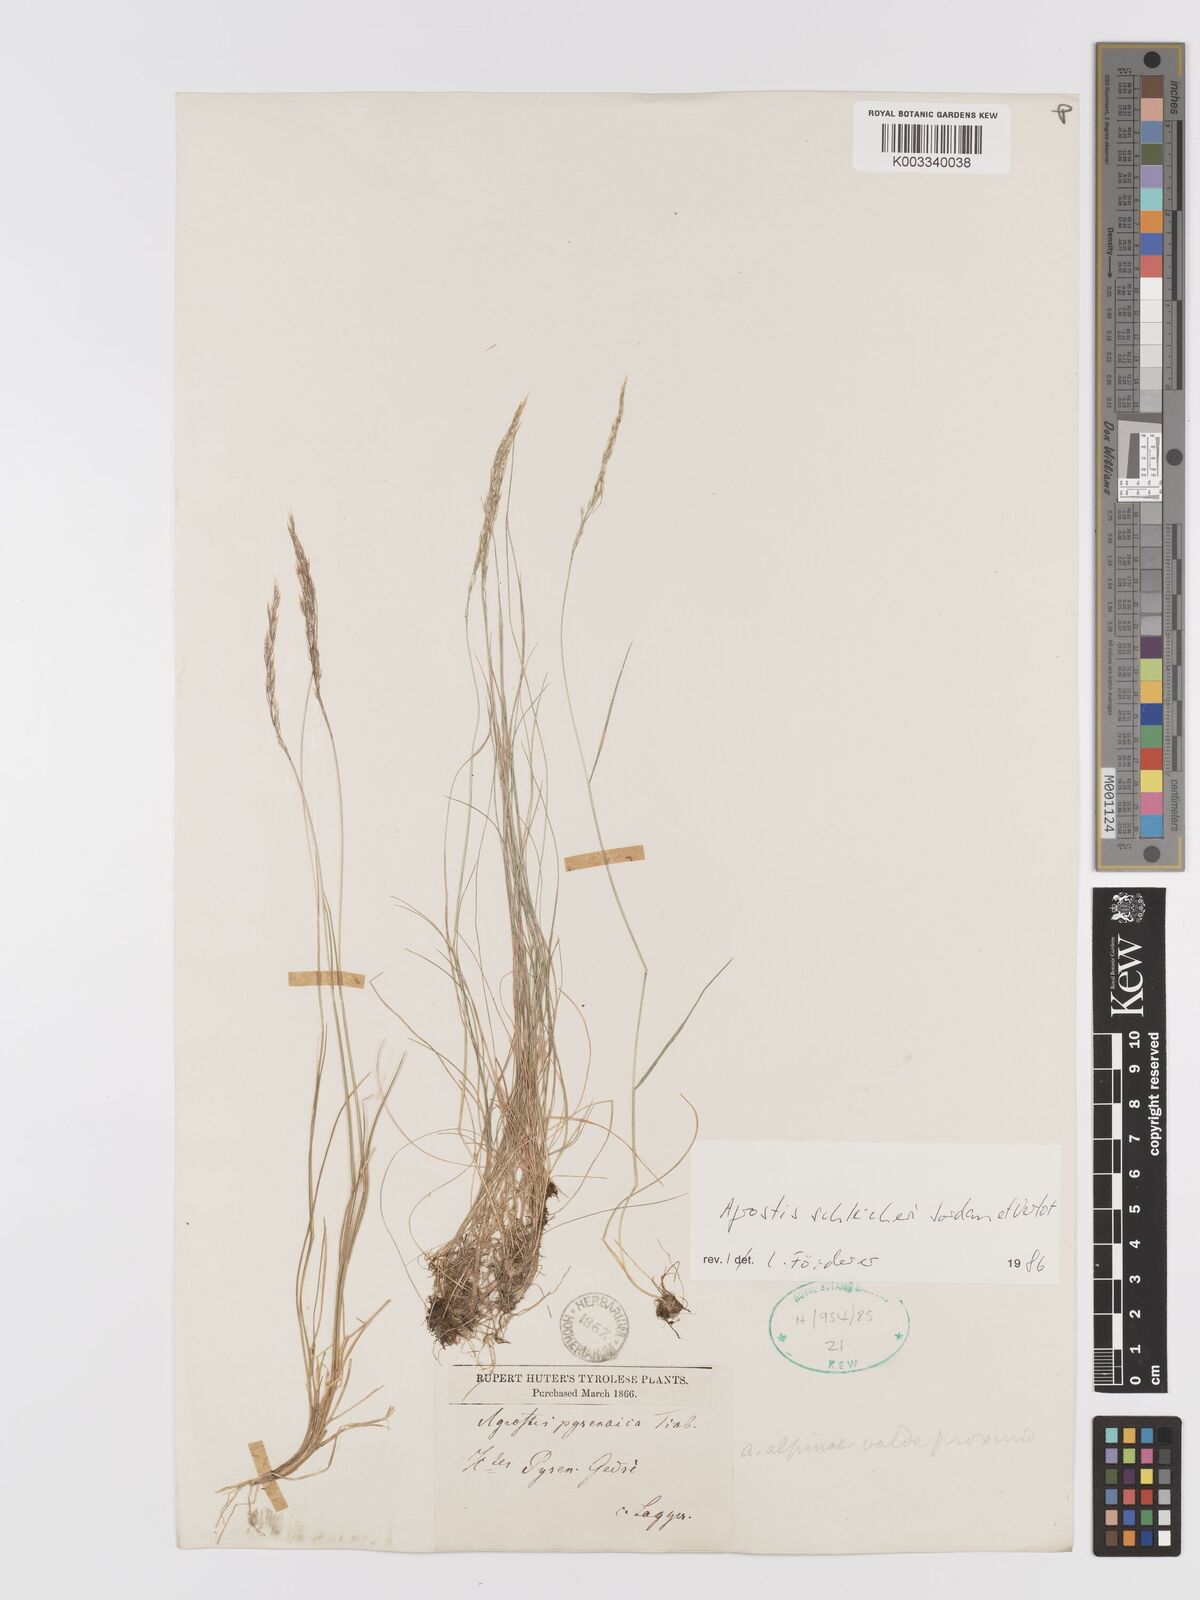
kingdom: Plantae
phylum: Tracheophyta
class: Liliopsida
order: Poales
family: Poaceae
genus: Alpagrostis
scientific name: Alpagrostis schleicheri
